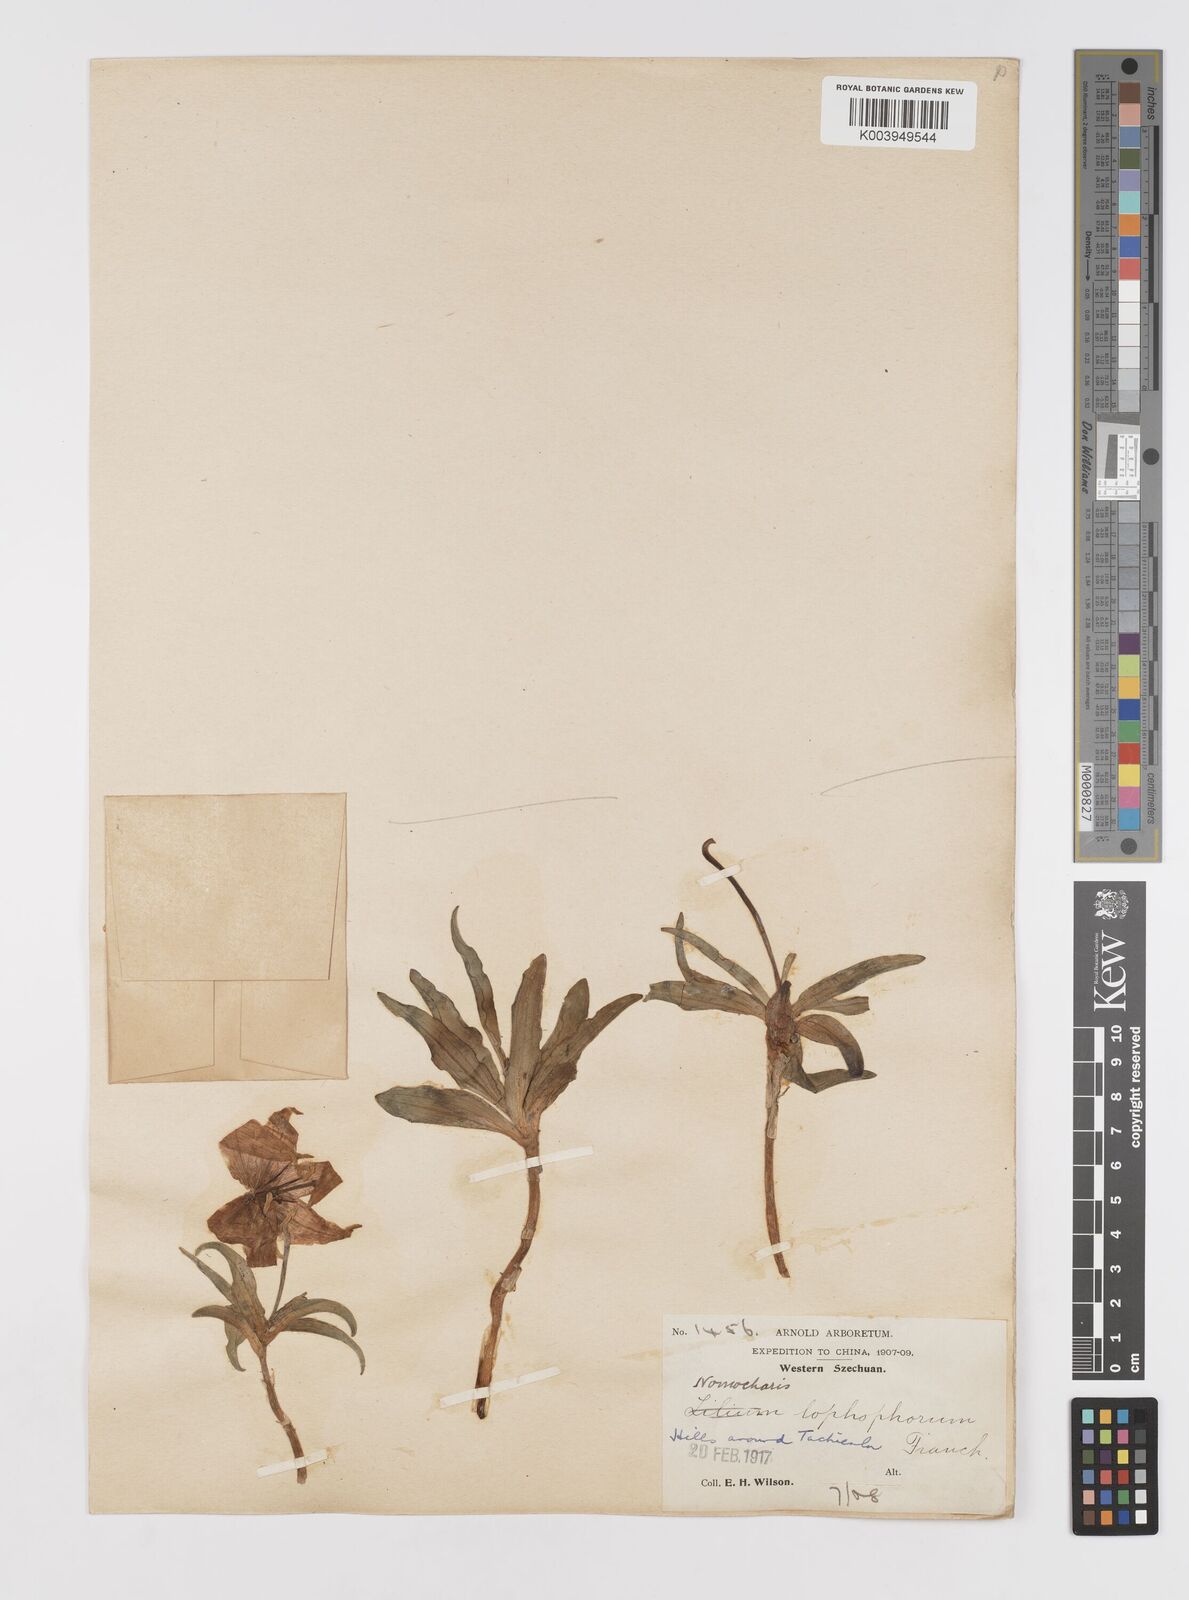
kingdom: Plantae
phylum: Tracheophyta
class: Liliopsida
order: Liliales
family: Liliaceae
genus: Lilium
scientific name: Lilium lophophorum
